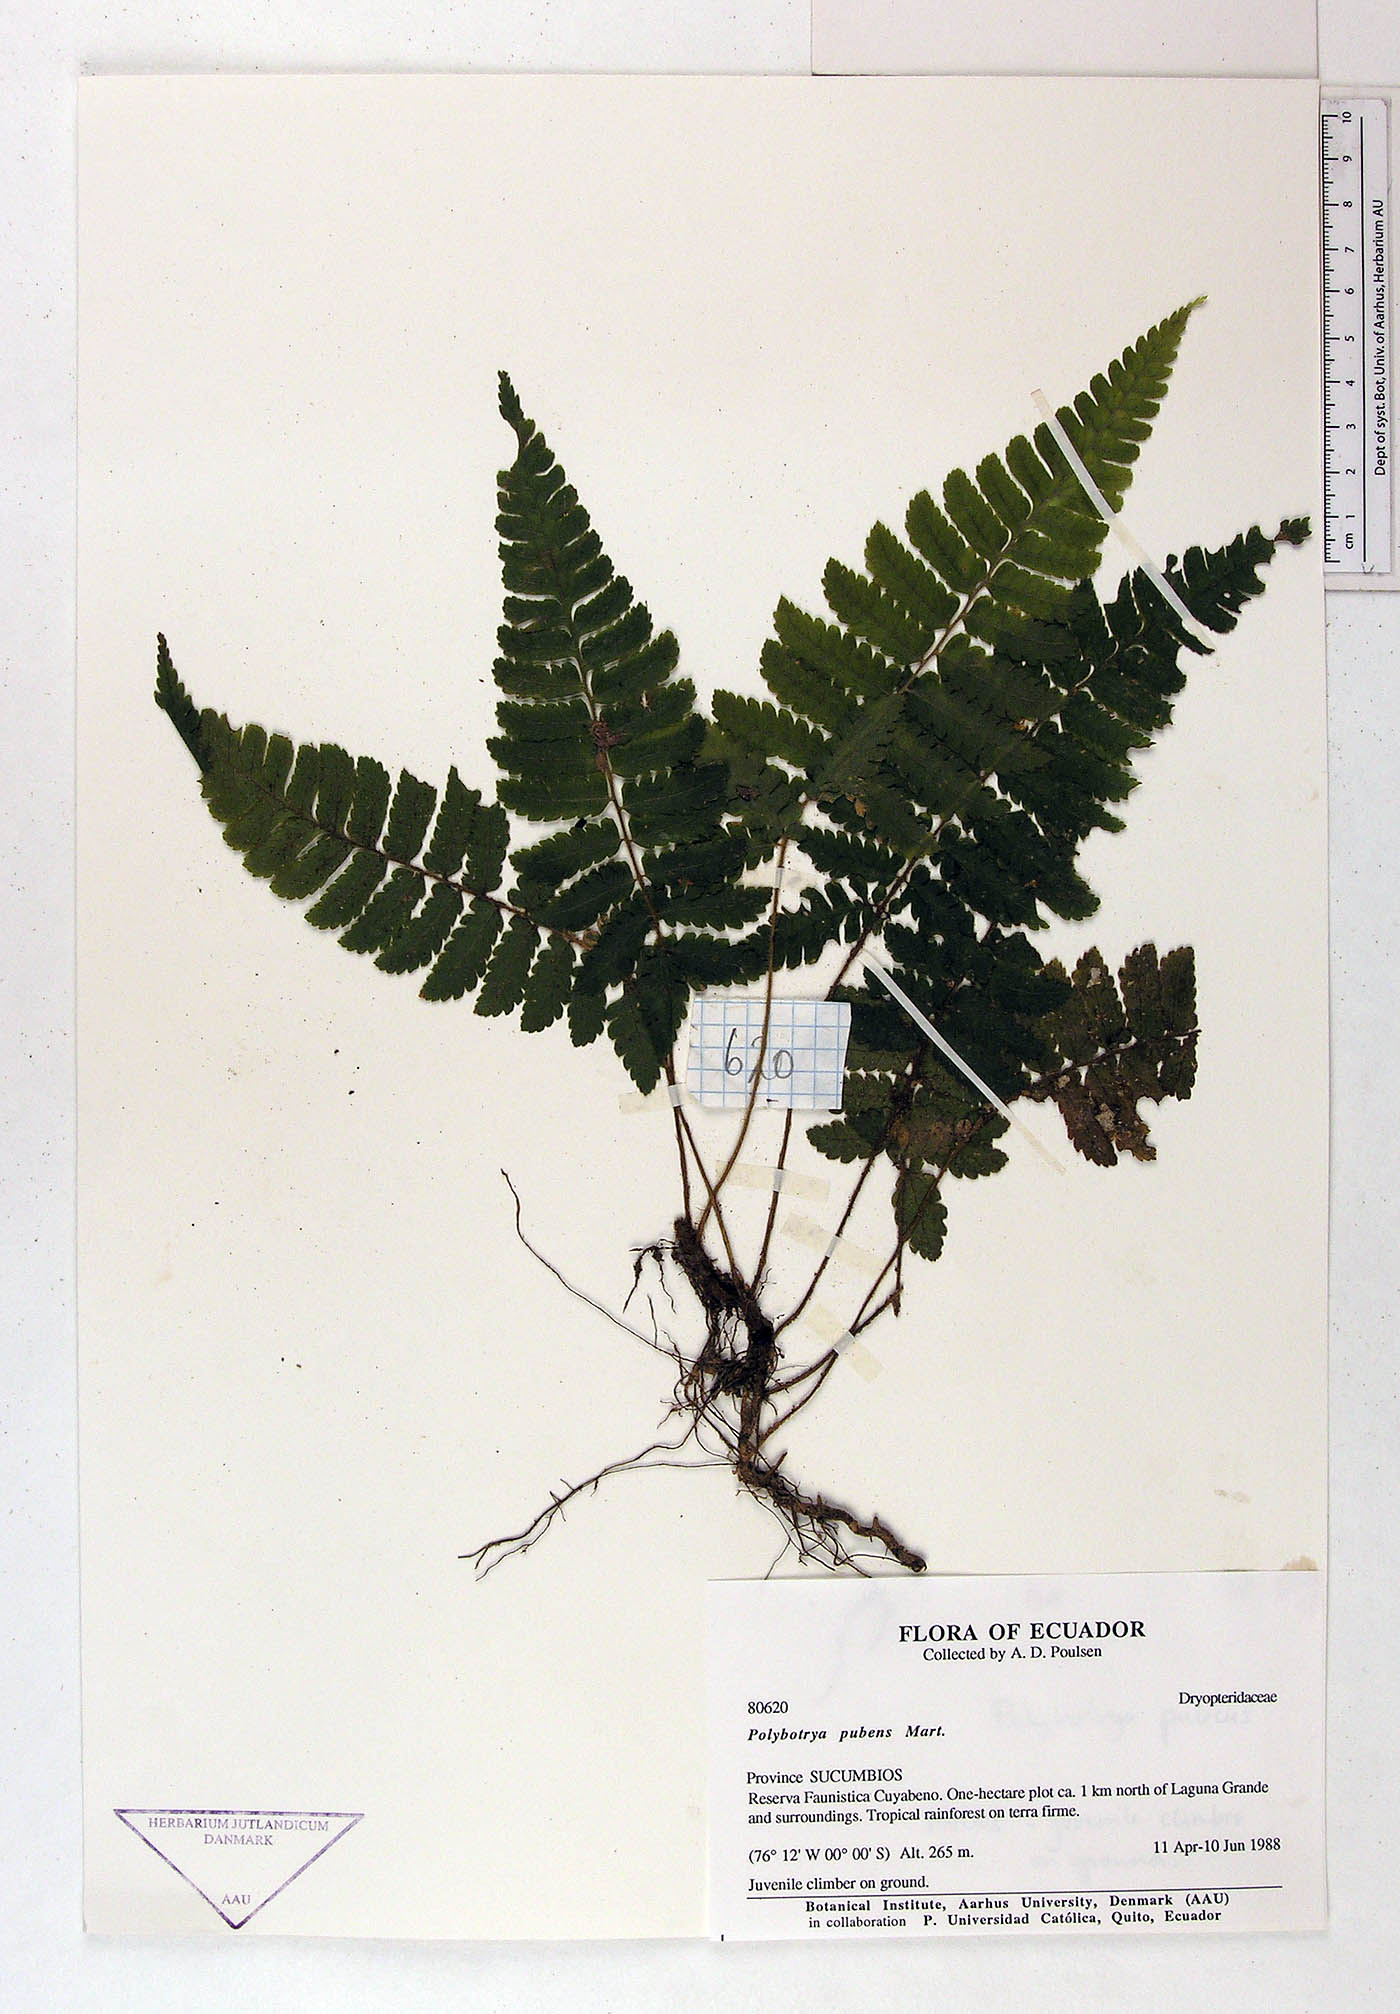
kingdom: Plantae
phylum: Tracheophyta
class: Polypodiopsida
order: Polypodiales
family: Dryopteridaceae
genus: Polybotrya
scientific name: Polybotrya pubens
